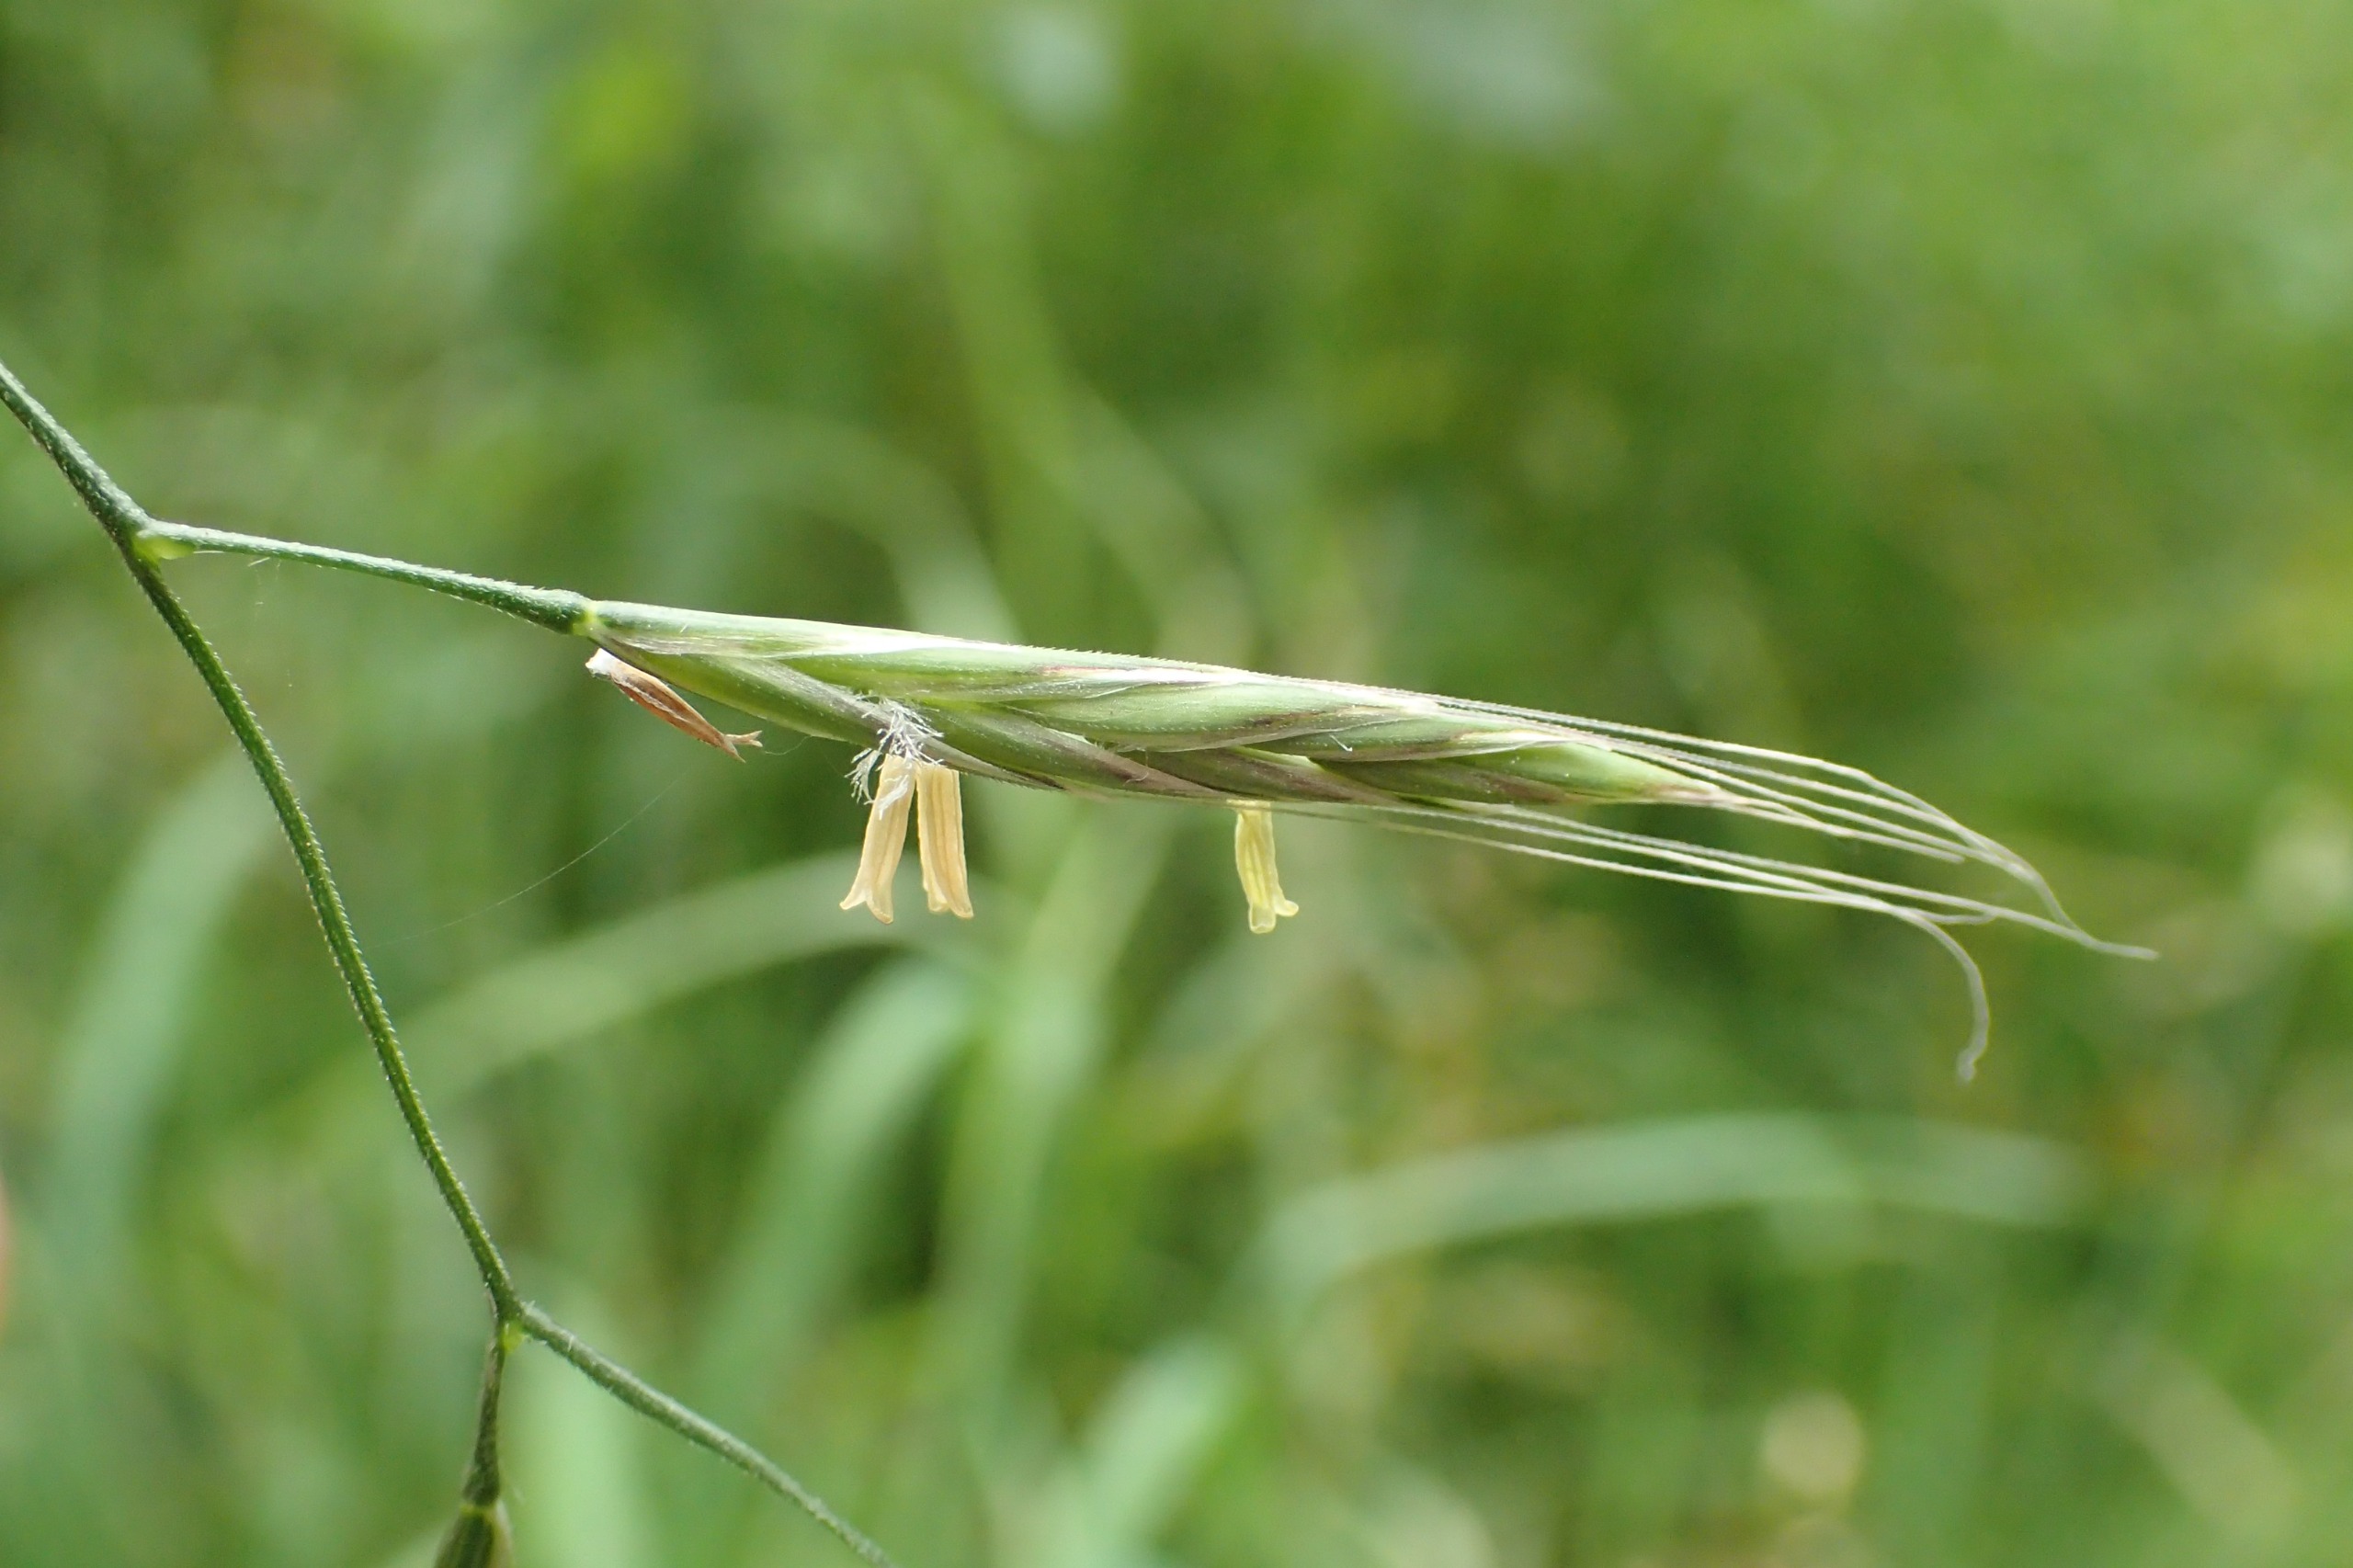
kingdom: Plantae
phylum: Tracheophyta
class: Liliopsida
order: Poales
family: Poaceae
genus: Lolium
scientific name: Lolium giganteum
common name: Kæmpe-svingel
